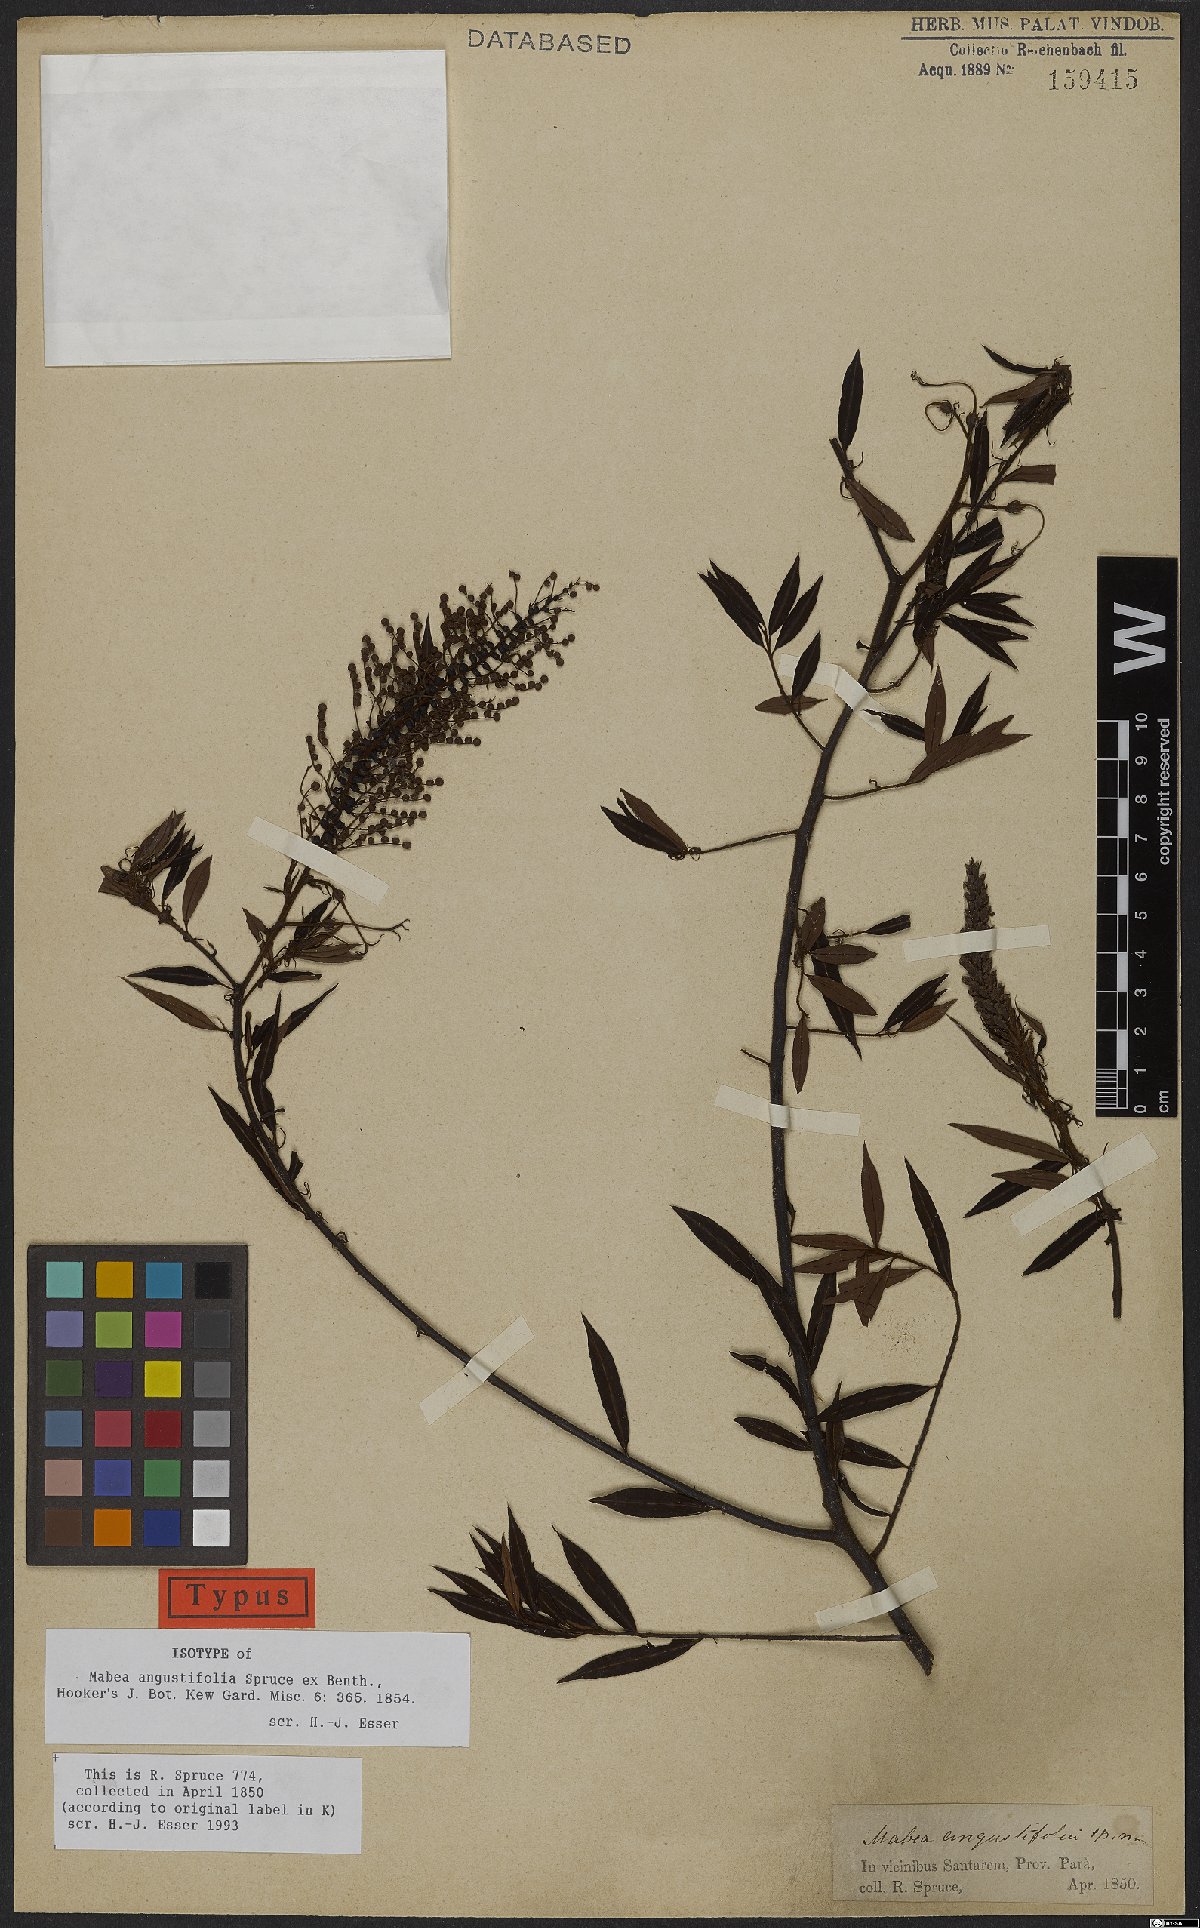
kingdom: Plantae
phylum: Tracheophyta
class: Magnoliopsida
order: Malpighiales
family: Euphorbiaceae
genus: Mabea
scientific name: Mabea angustifolia
